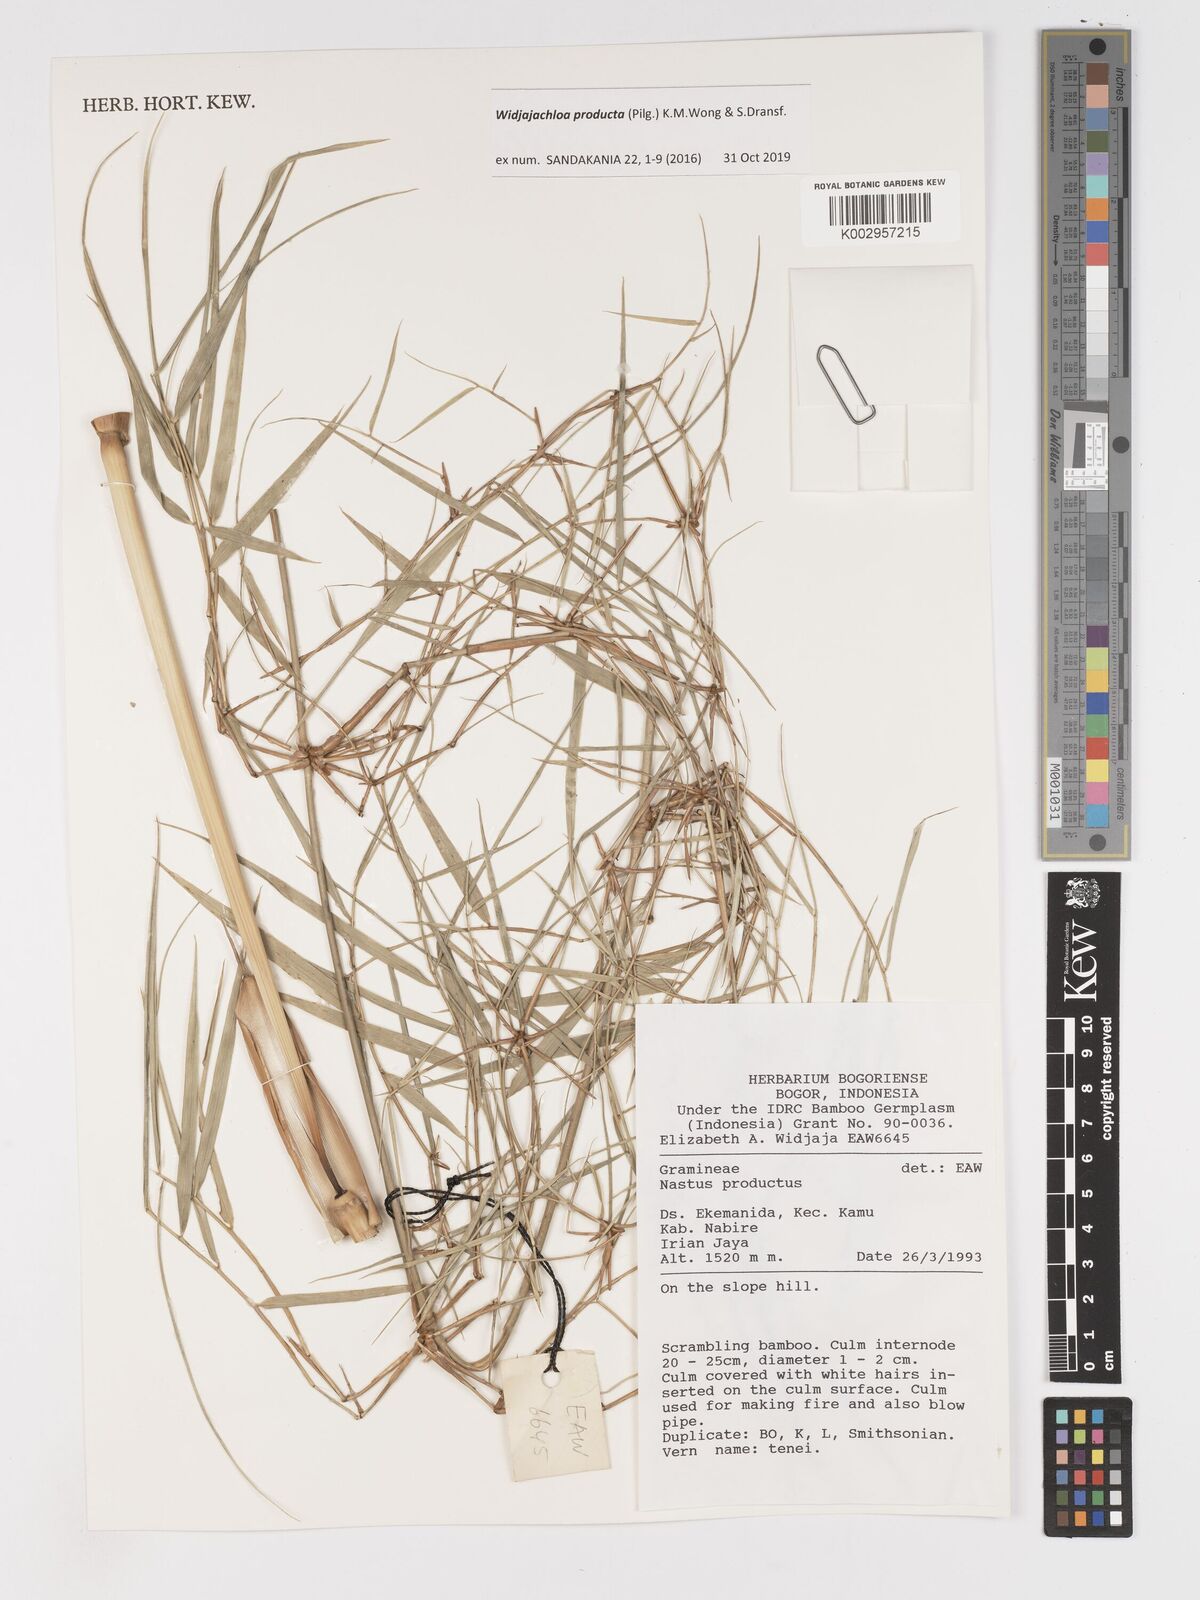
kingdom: Plantae
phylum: Tracheophyta
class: Liliopsida
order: Poales
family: Poaceae
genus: Widjajachloa
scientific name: Widjajachloa
